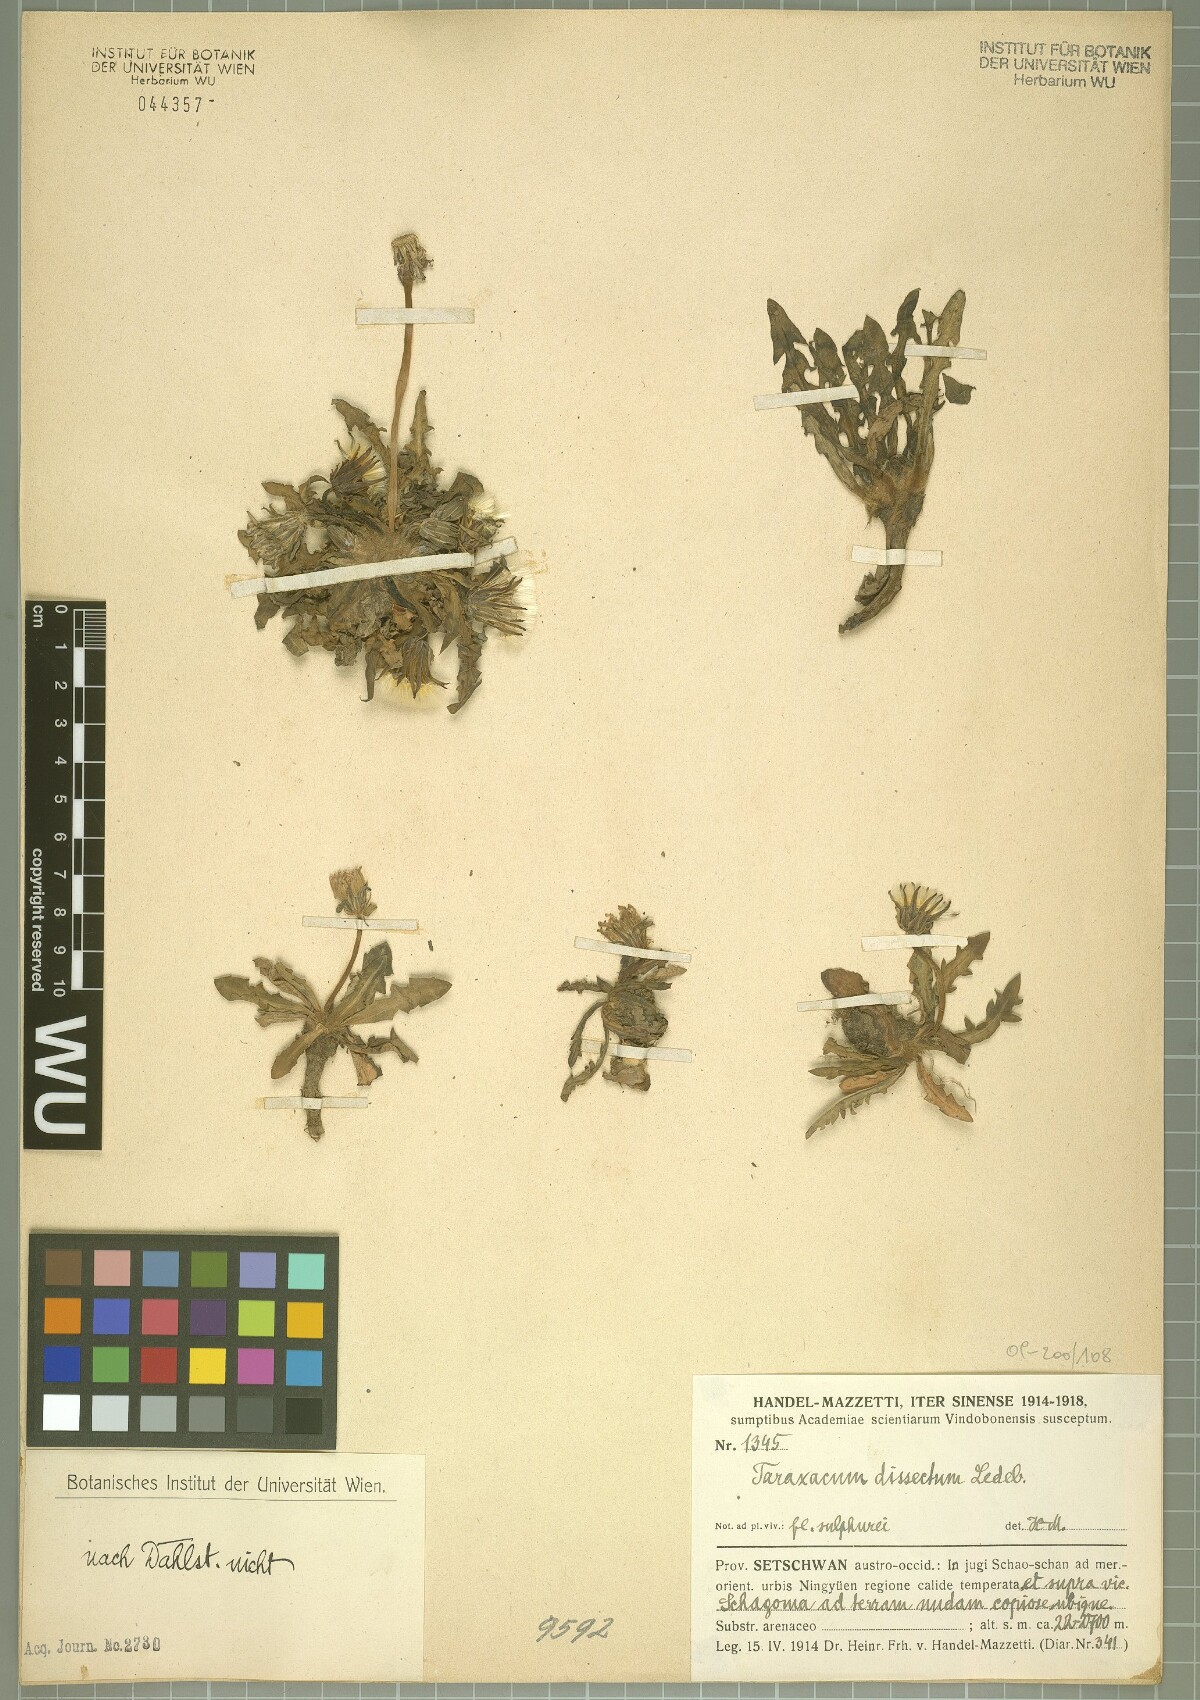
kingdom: Plantae
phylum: Tracheophyta
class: Magnoliopsida
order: Asterales
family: Asteraceae
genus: Taraxacum
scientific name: Taraxacum dissectum
